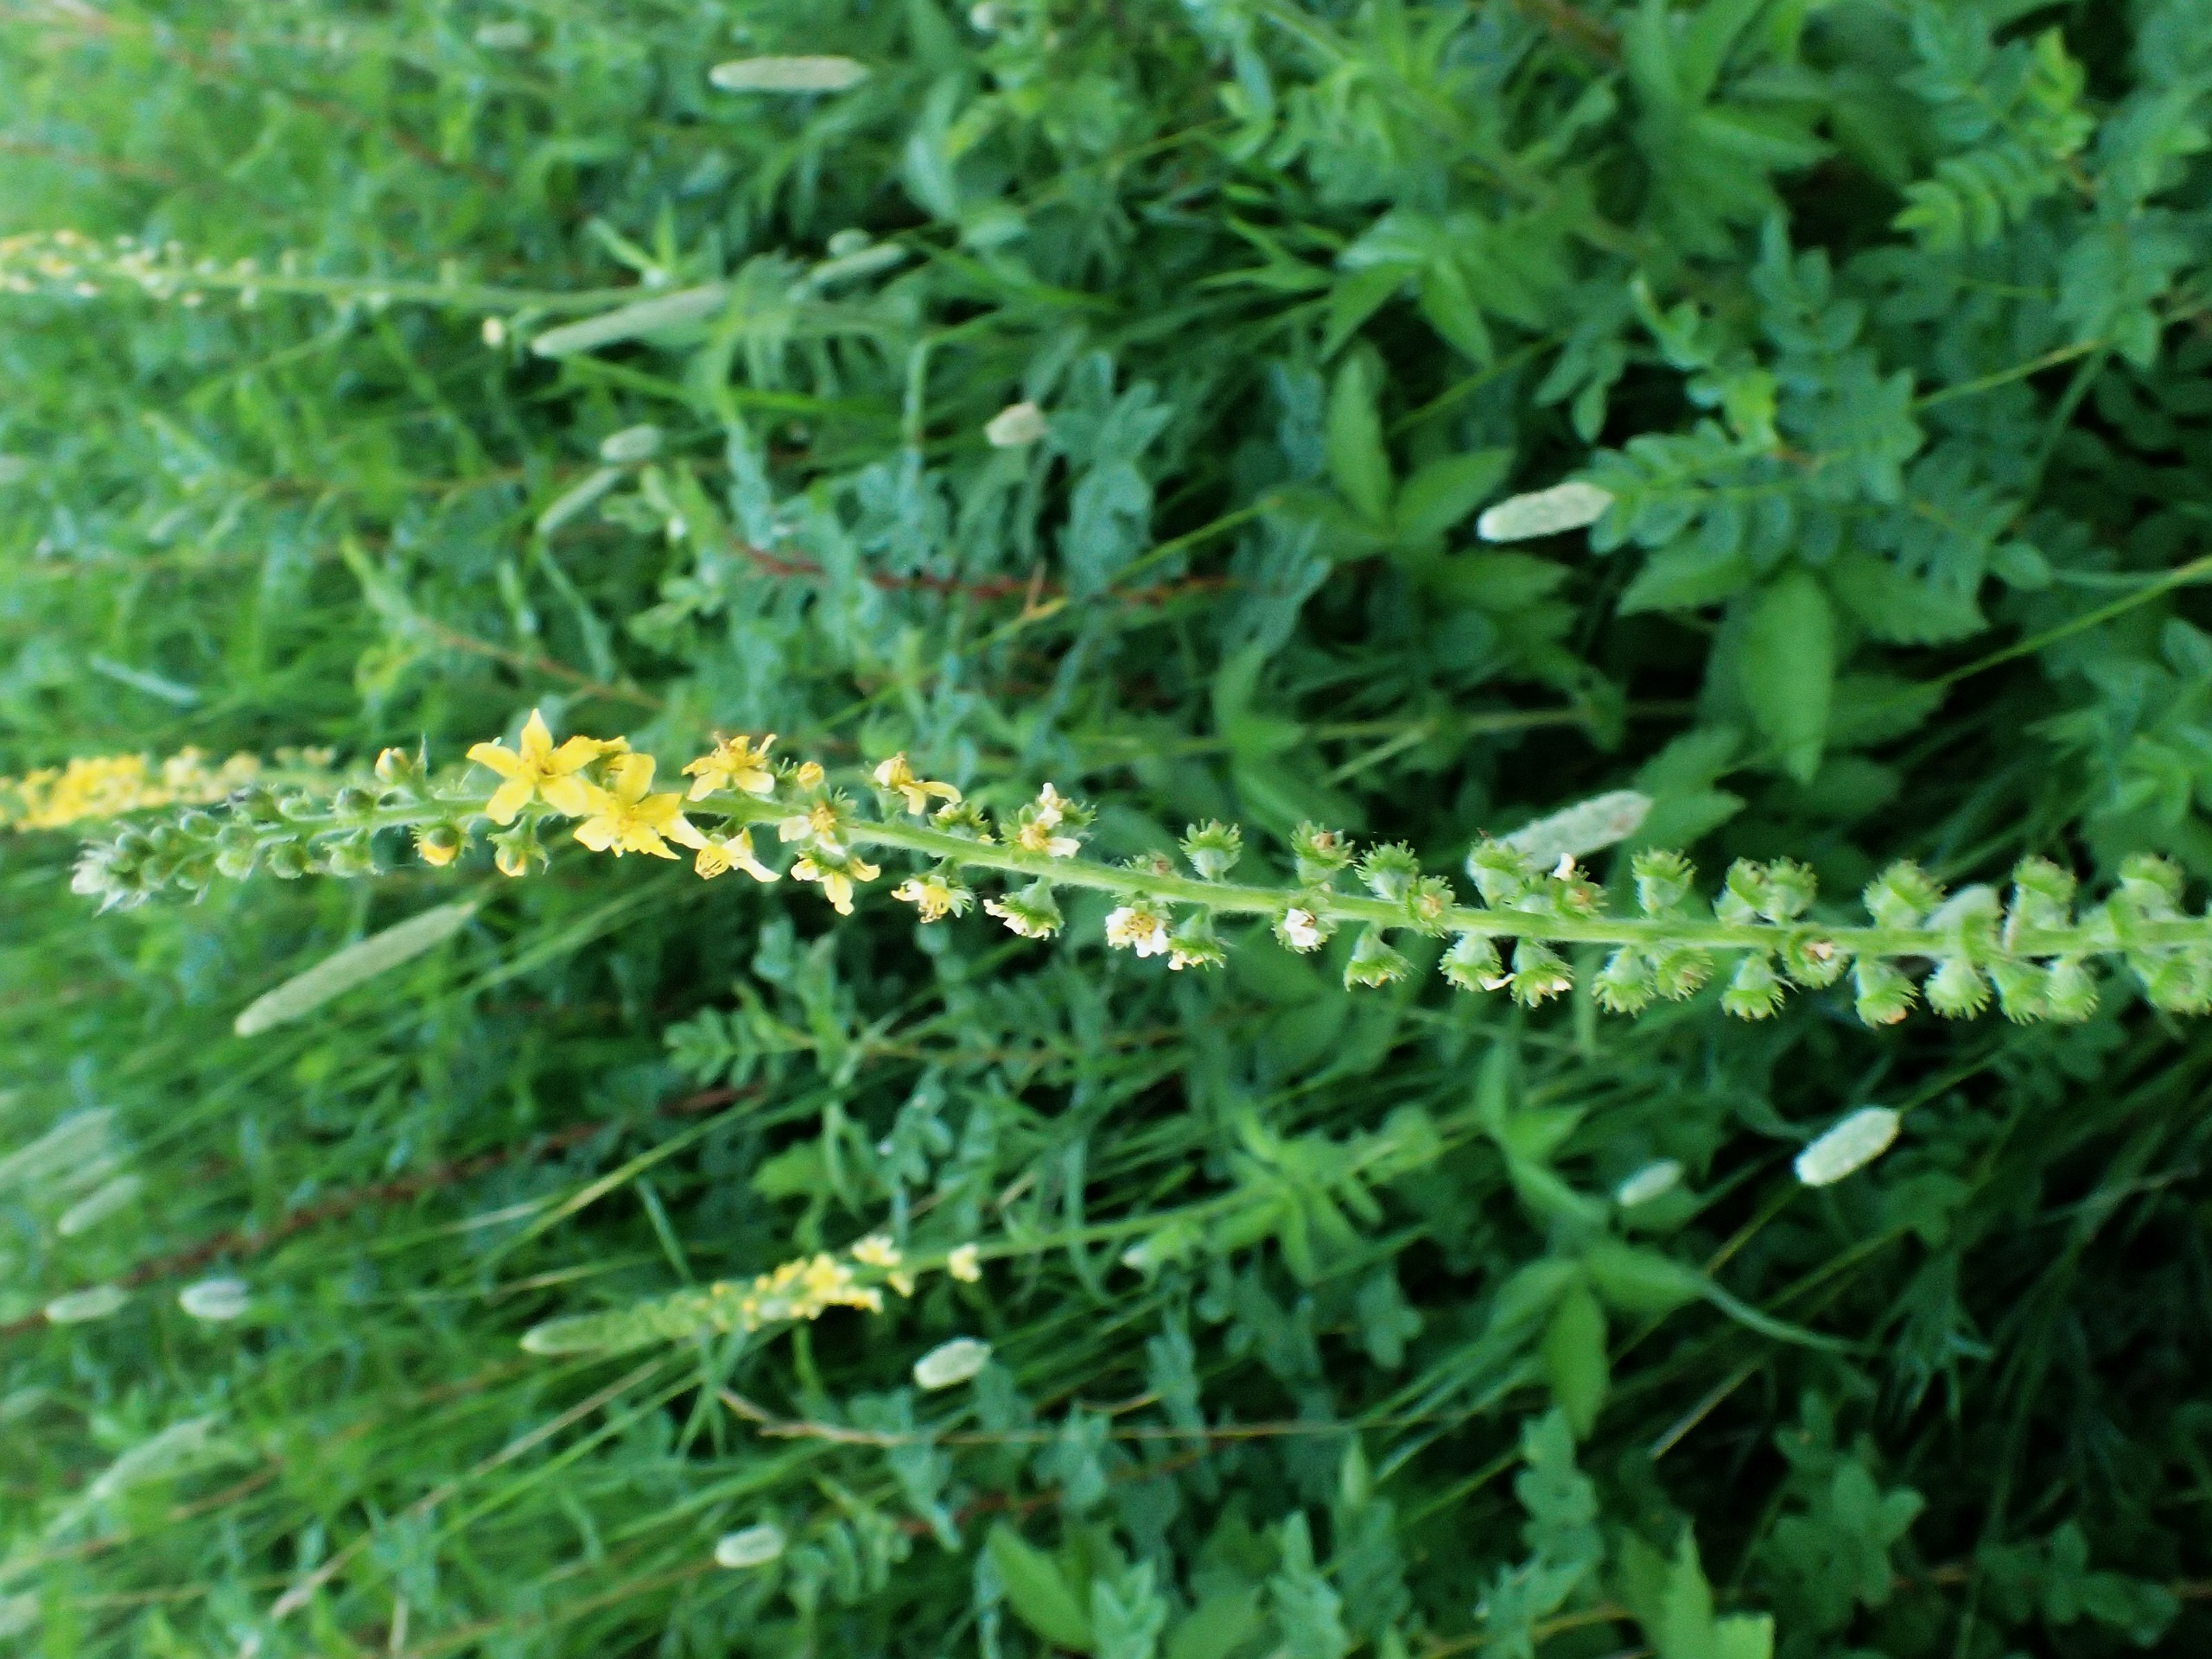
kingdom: Plantae
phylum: Tracheophyta
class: Magnoliopsida
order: Rosales
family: Rosaceae
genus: Agrimonia
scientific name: Agrimonia eupatoria
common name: Almindelig agermåne
